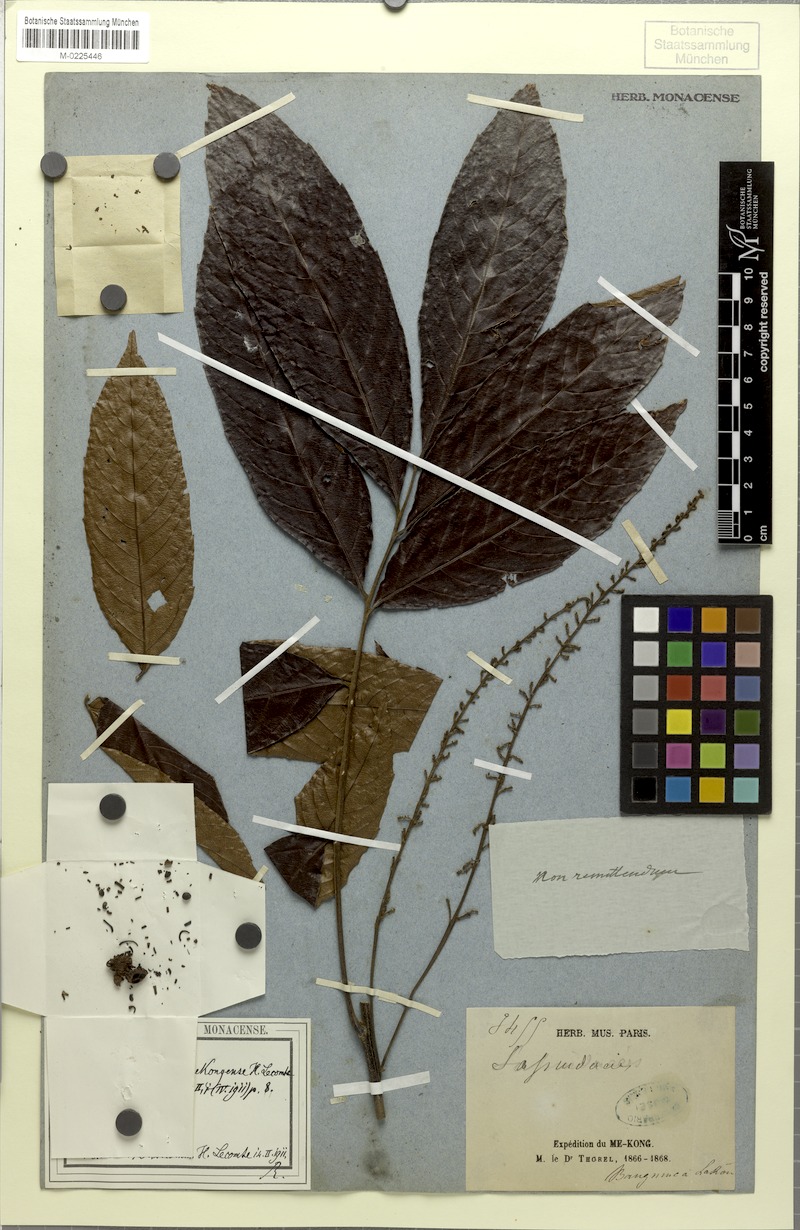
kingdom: Plantae
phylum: Tracheophyta
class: Magnoliopsida
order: Sapindales
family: Sapindaceae
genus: Phyllotrichum
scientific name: Phyllotrichum mekongense
